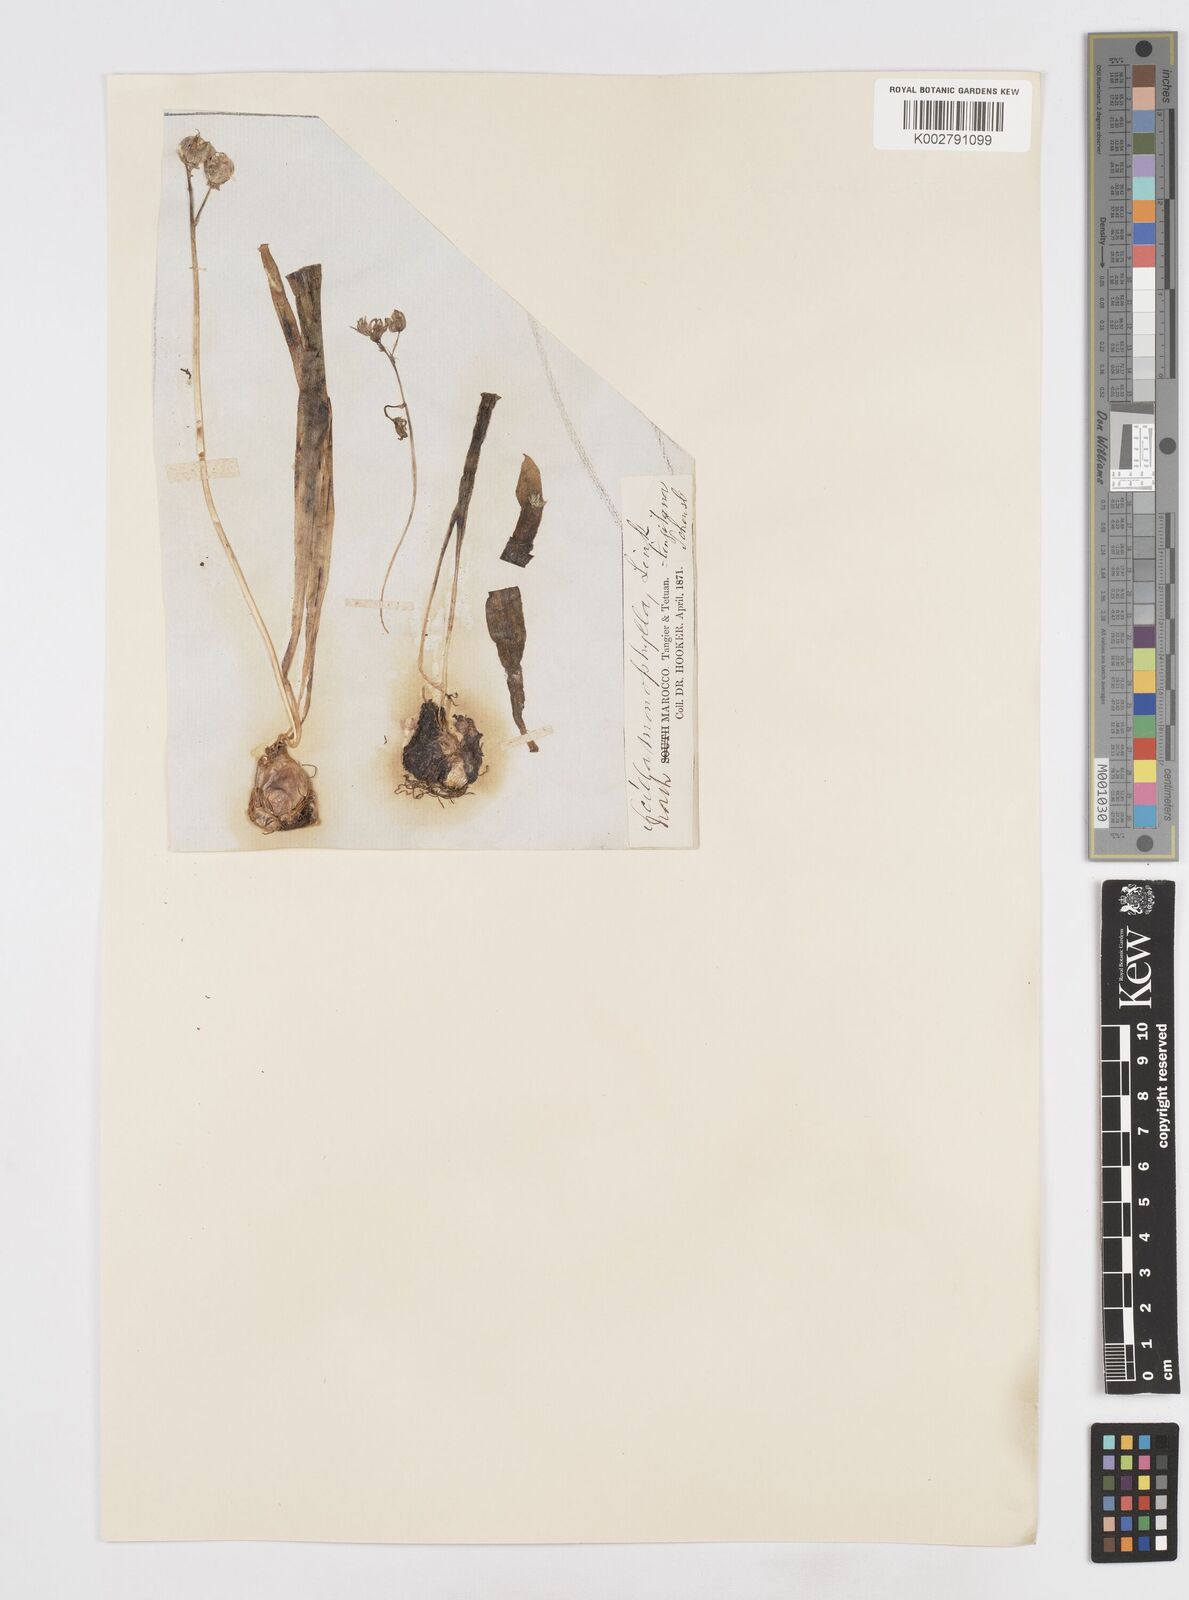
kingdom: Plantae
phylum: Tracheophyta
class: Liliopsida
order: Asparagales
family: Asparagaceae
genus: Scilla
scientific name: Scilla monophyllos
